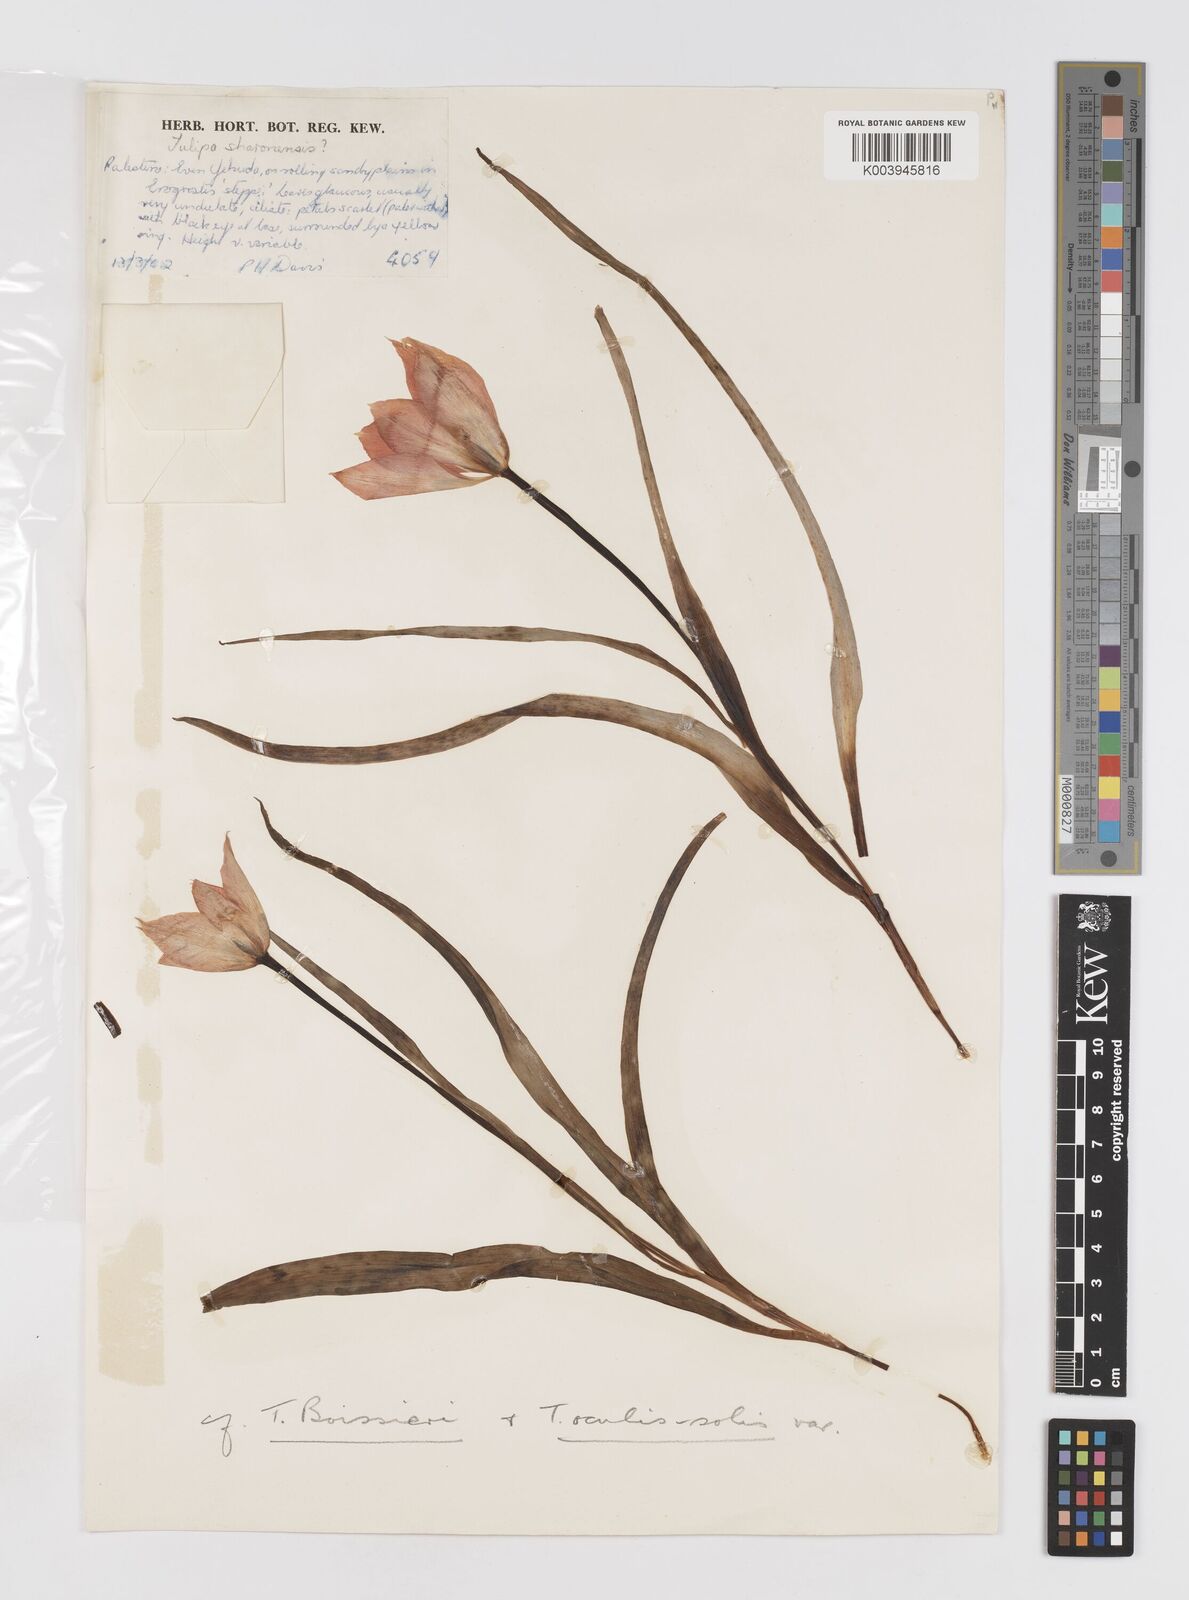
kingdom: Plantae
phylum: Tracheophyta
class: Liliopsida
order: Liliales
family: Liliaceae
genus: Tulipa
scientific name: Tulipa aleppensis
